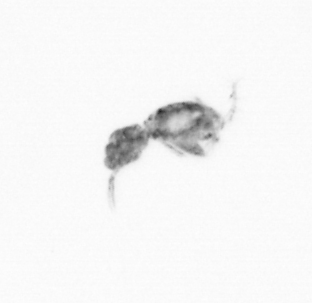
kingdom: Animalia
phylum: Arthropoda
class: Copepoda
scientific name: Copepoda
